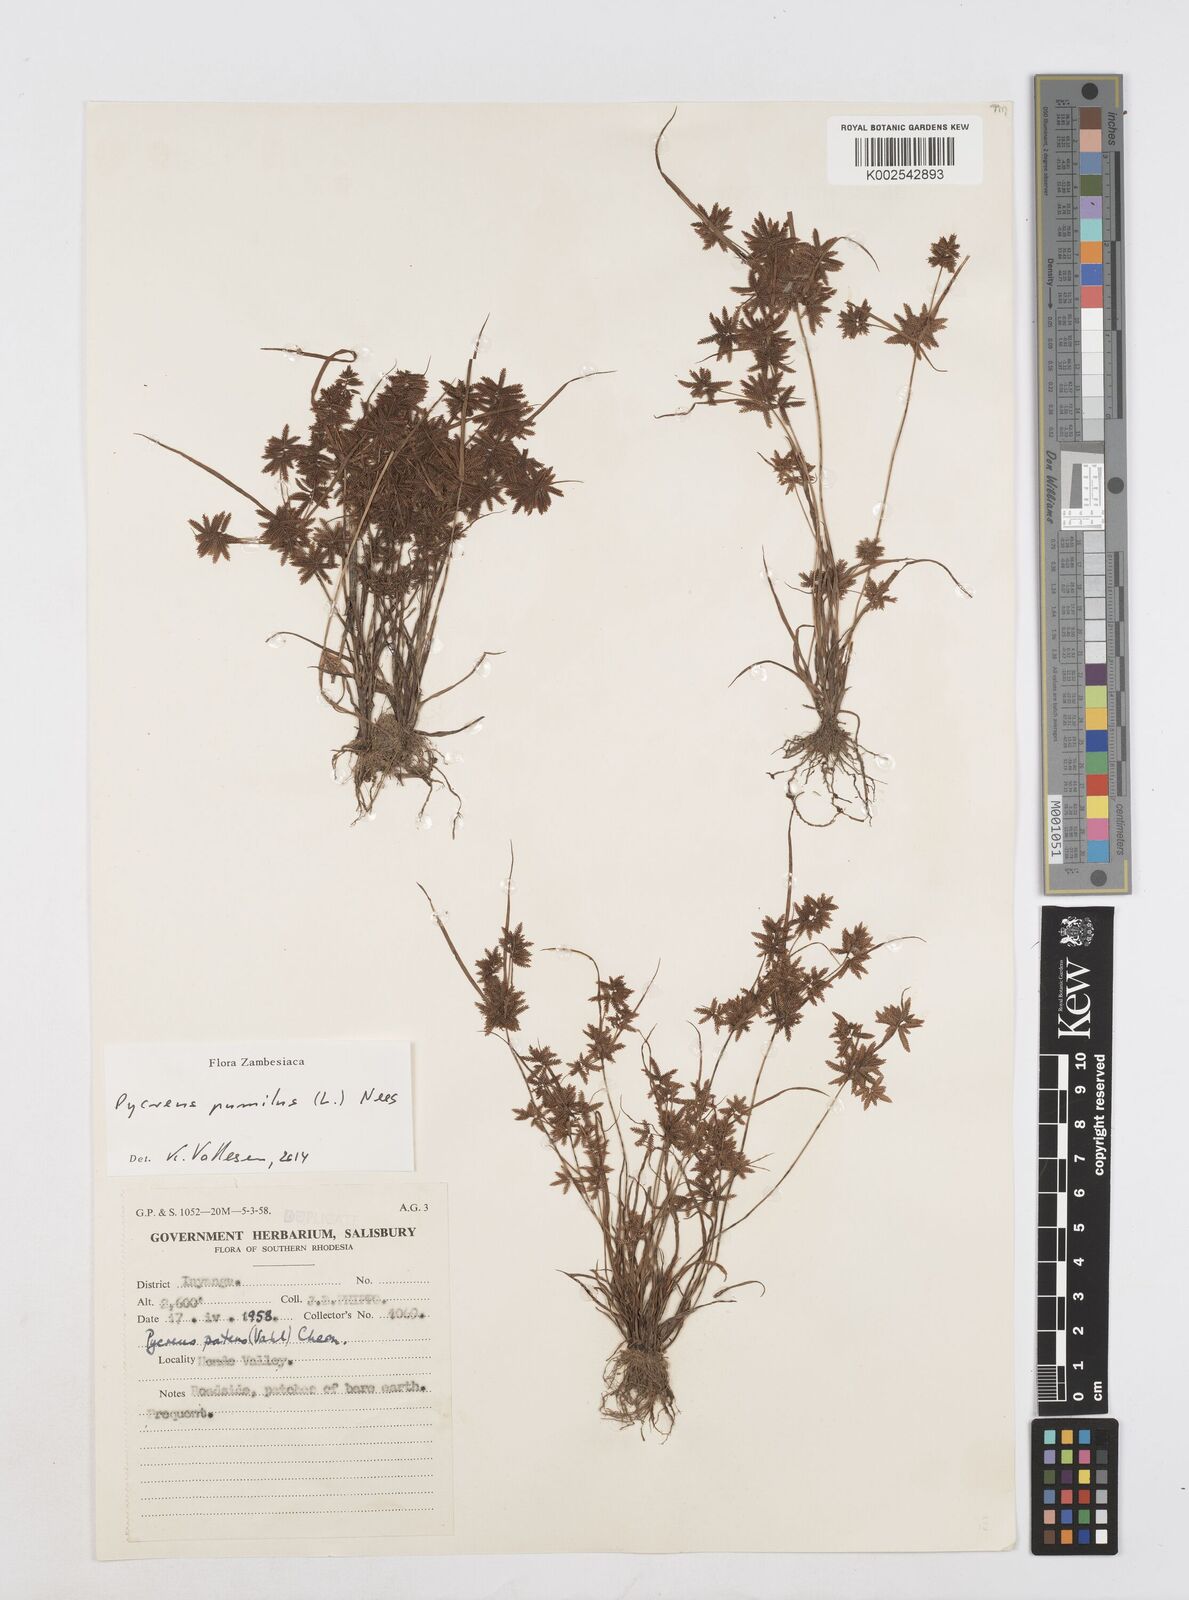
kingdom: Plantae
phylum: Tracheophyta
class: Liliopsida
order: Poales
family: Cyperaceae
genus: Cyperus
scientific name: Cyperus pumilus
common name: Low flatsedge
